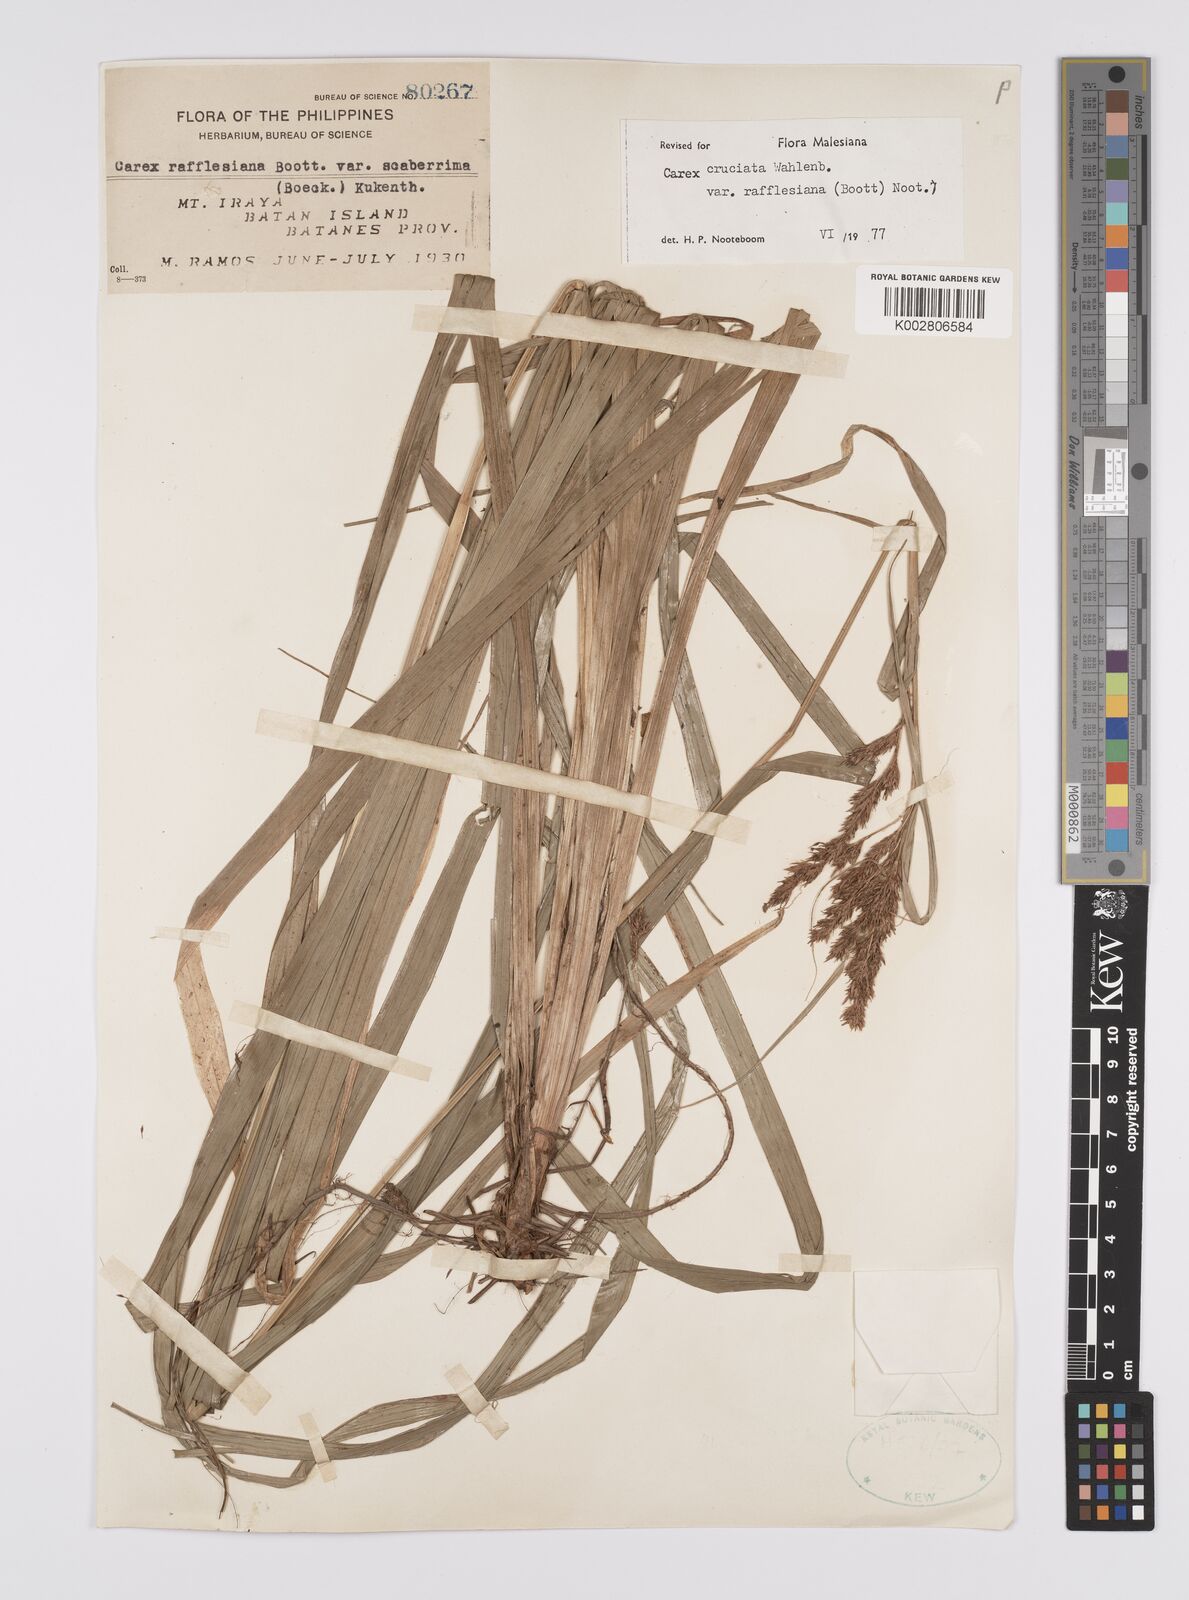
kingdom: Plantae
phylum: Tracheophyta
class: Liliopsida
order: Poales
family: Cyperaceae
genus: Carex
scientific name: Carex rafflesiana
